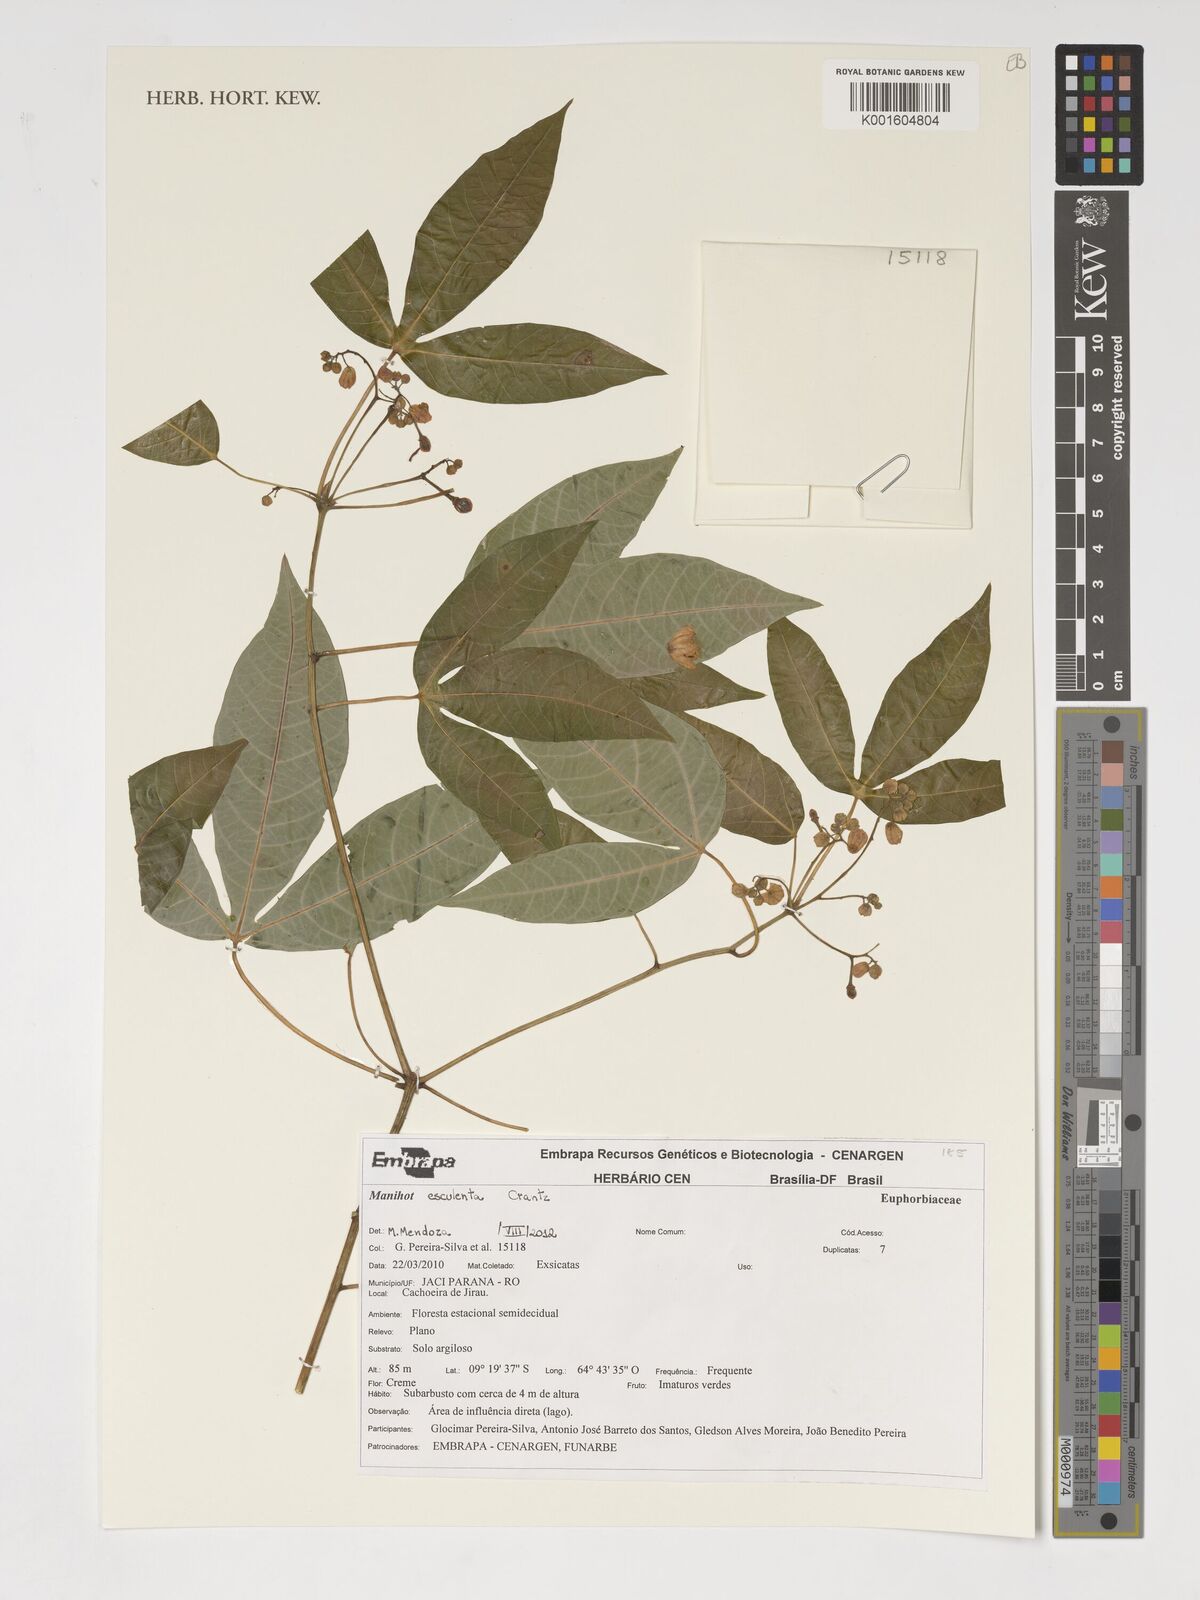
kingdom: Plantae
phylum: Tracheophyta
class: Magnoliopsida
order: Malpighiales
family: Euphorbiaceae
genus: Manihot
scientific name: Manihot esculenta
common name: Cassava
